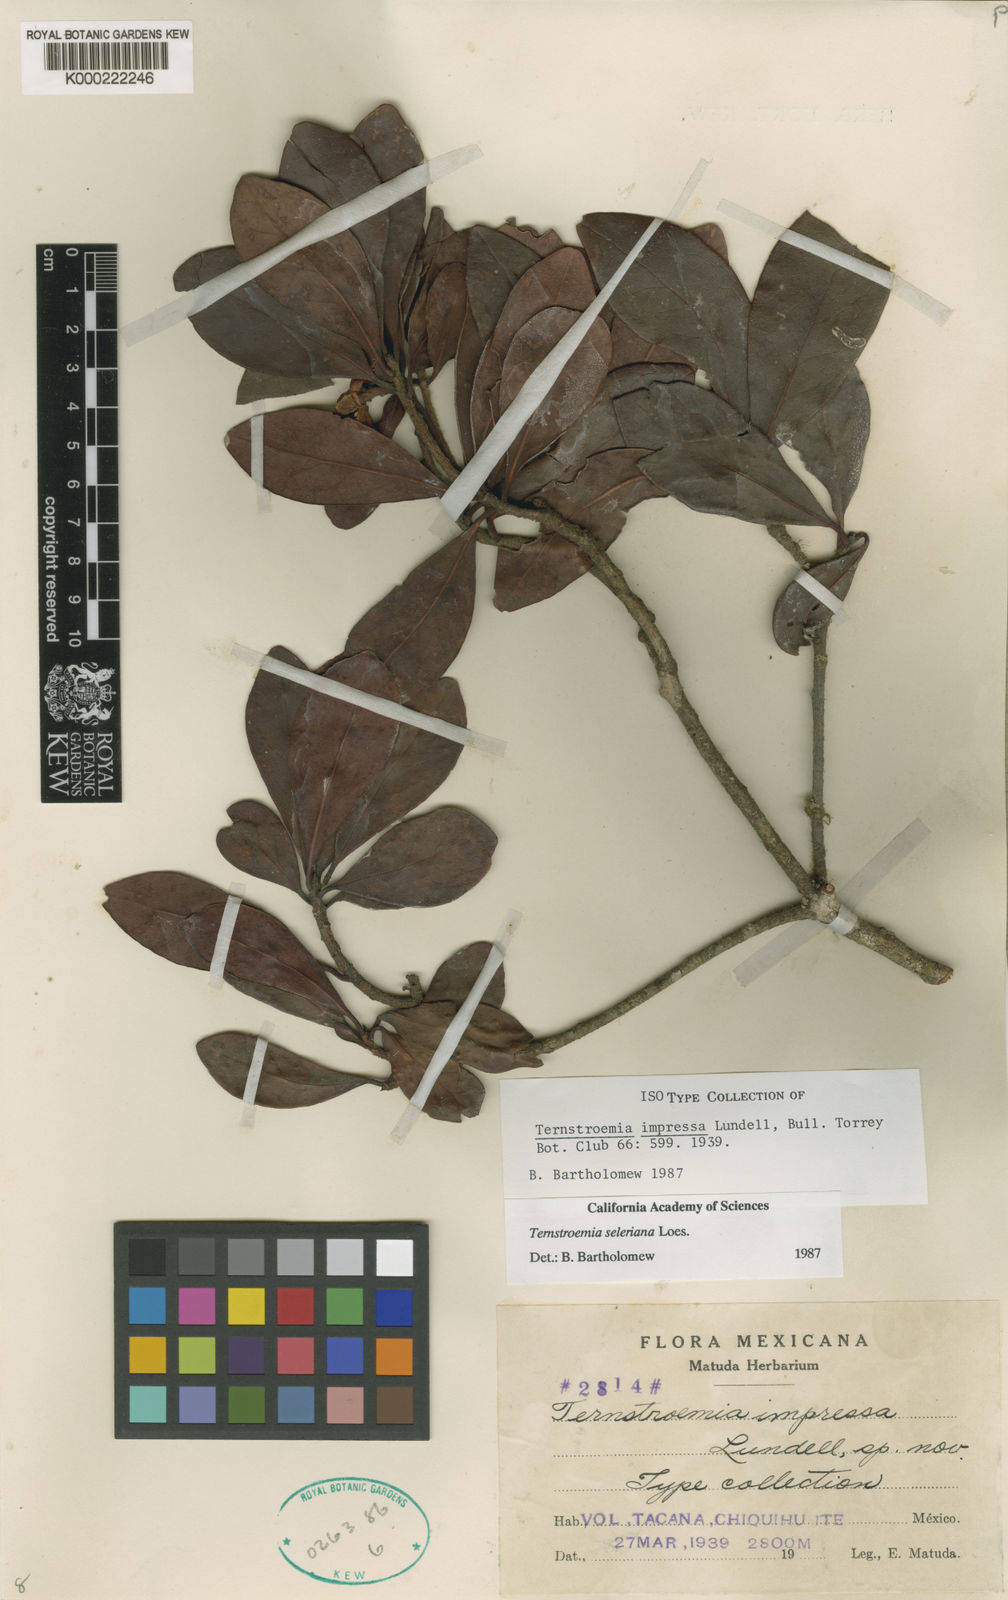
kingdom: Plantae
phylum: Tracheophyta
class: Magnoliopsida
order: Ericales
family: Pentaphylacaceae
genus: Ternstroemia
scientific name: Ternstroemia tepezapote
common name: Copey vera
